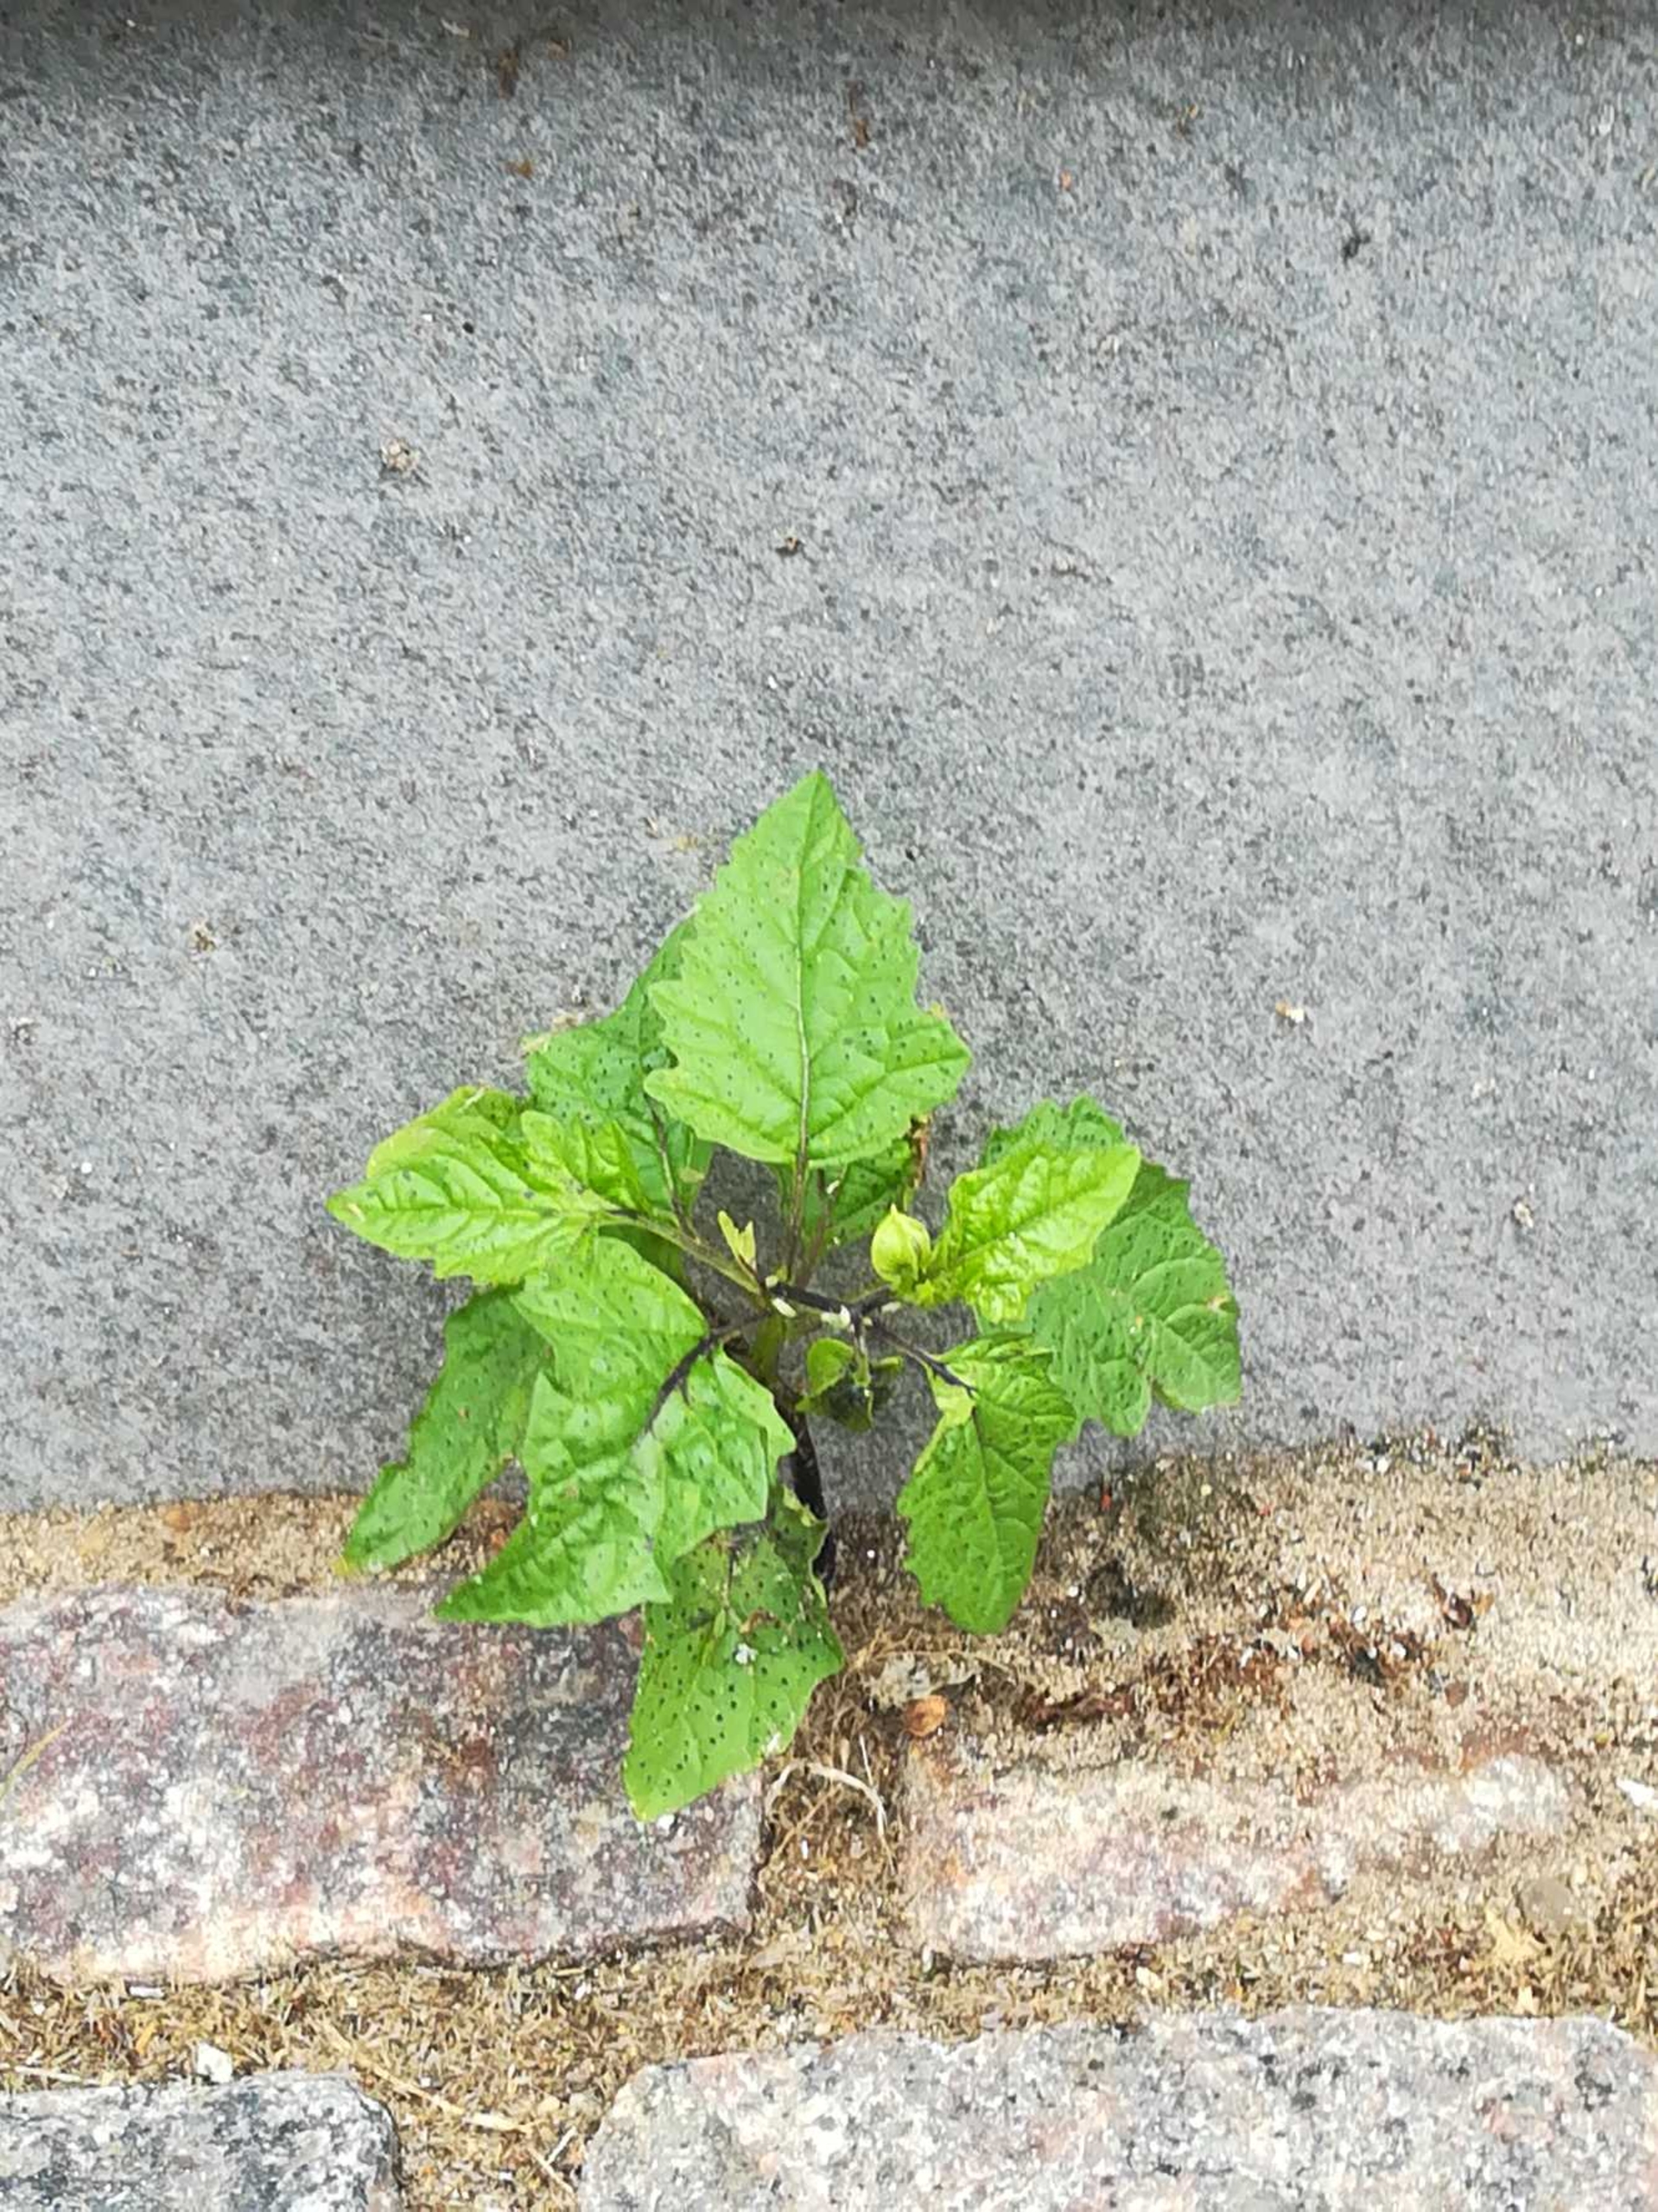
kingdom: Plantae
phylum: Tracheophyta
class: Magnoliopsida
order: Solanales
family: Solanaceae
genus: Nicandra
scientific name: Nicandra physalodes
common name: Kantbæger
